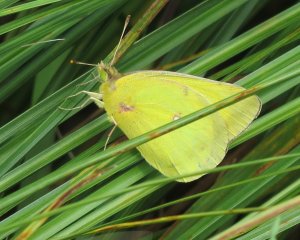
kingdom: Animalia
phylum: Arthropoda
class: Insecta
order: Lepidoptera
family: Pieridae
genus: Colias
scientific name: Colias philodice
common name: Clouded Sulphur
